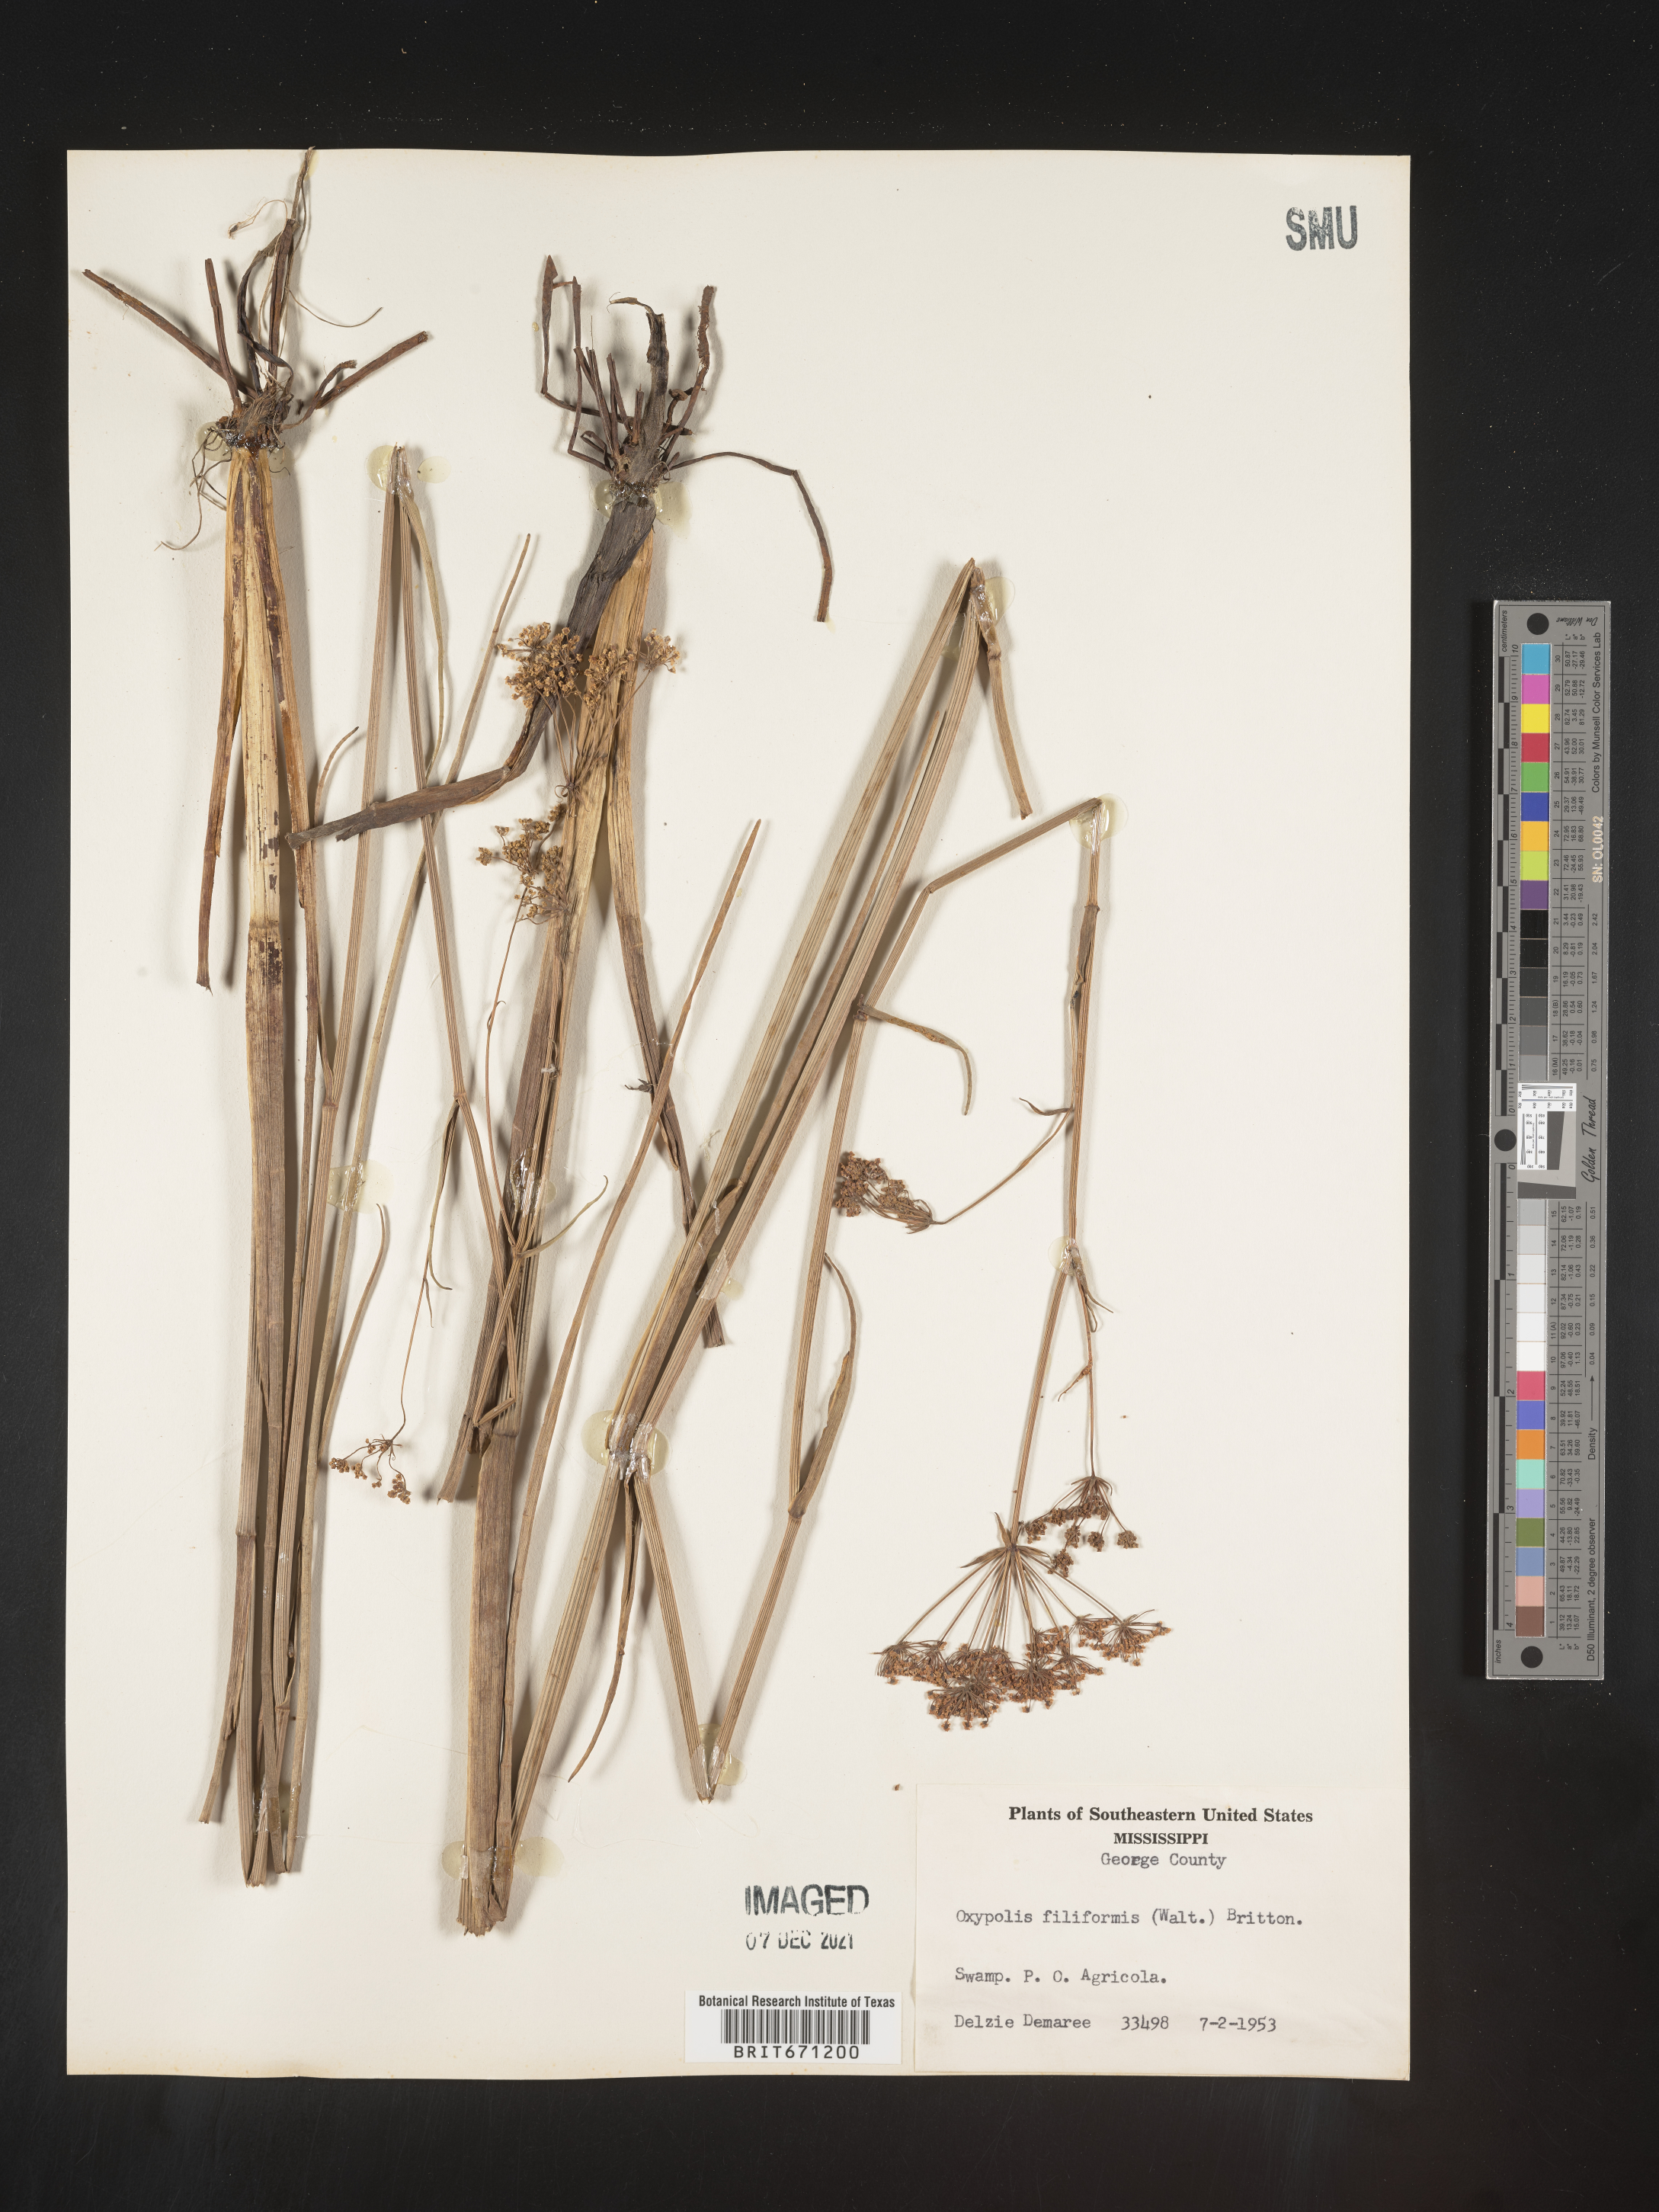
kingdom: Plantae
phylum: Tracheophyta
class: Magnoliopsida
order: Apiales
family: Apiaceae
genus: Tiedemannia
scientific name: Tiedemannia filiformis
